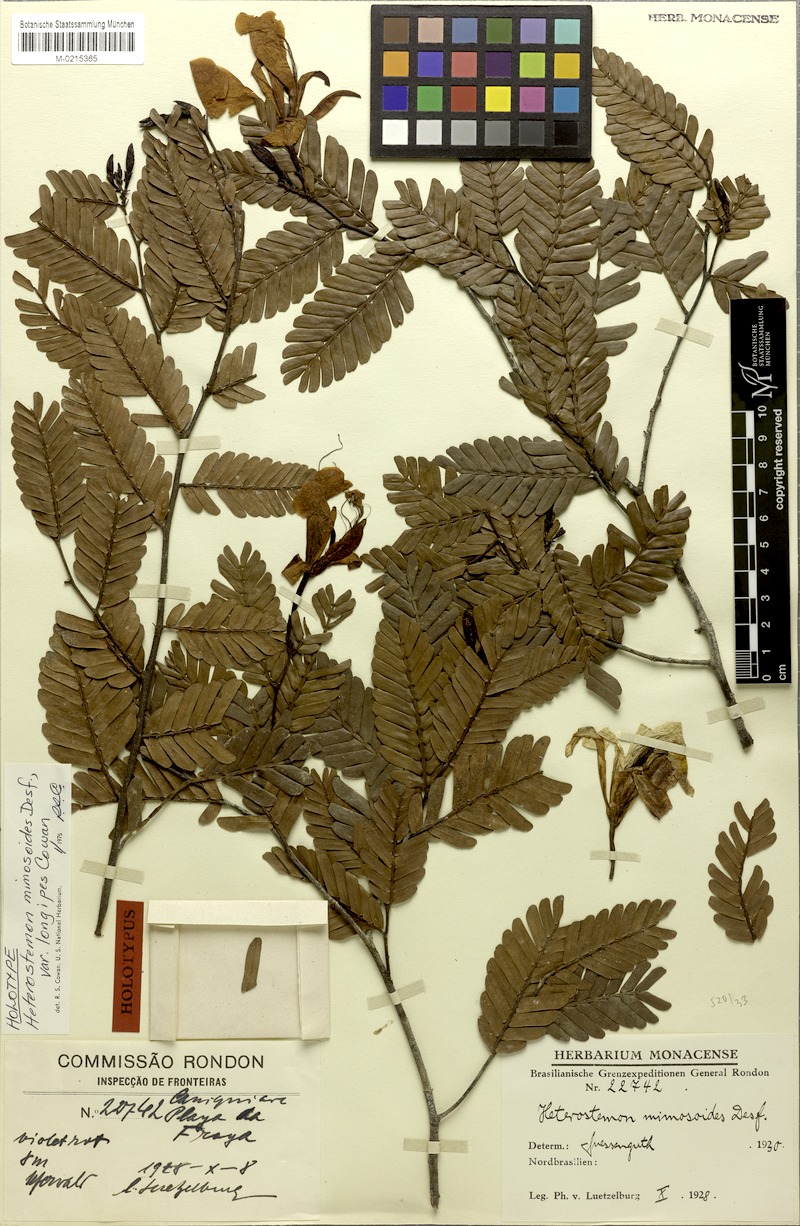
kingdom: Plantae
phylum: Tracheophyta
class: Magnoliopsida
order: Fabales
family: Fabaceae
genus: Heterostemon
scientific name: Heterostemon mimosoides
